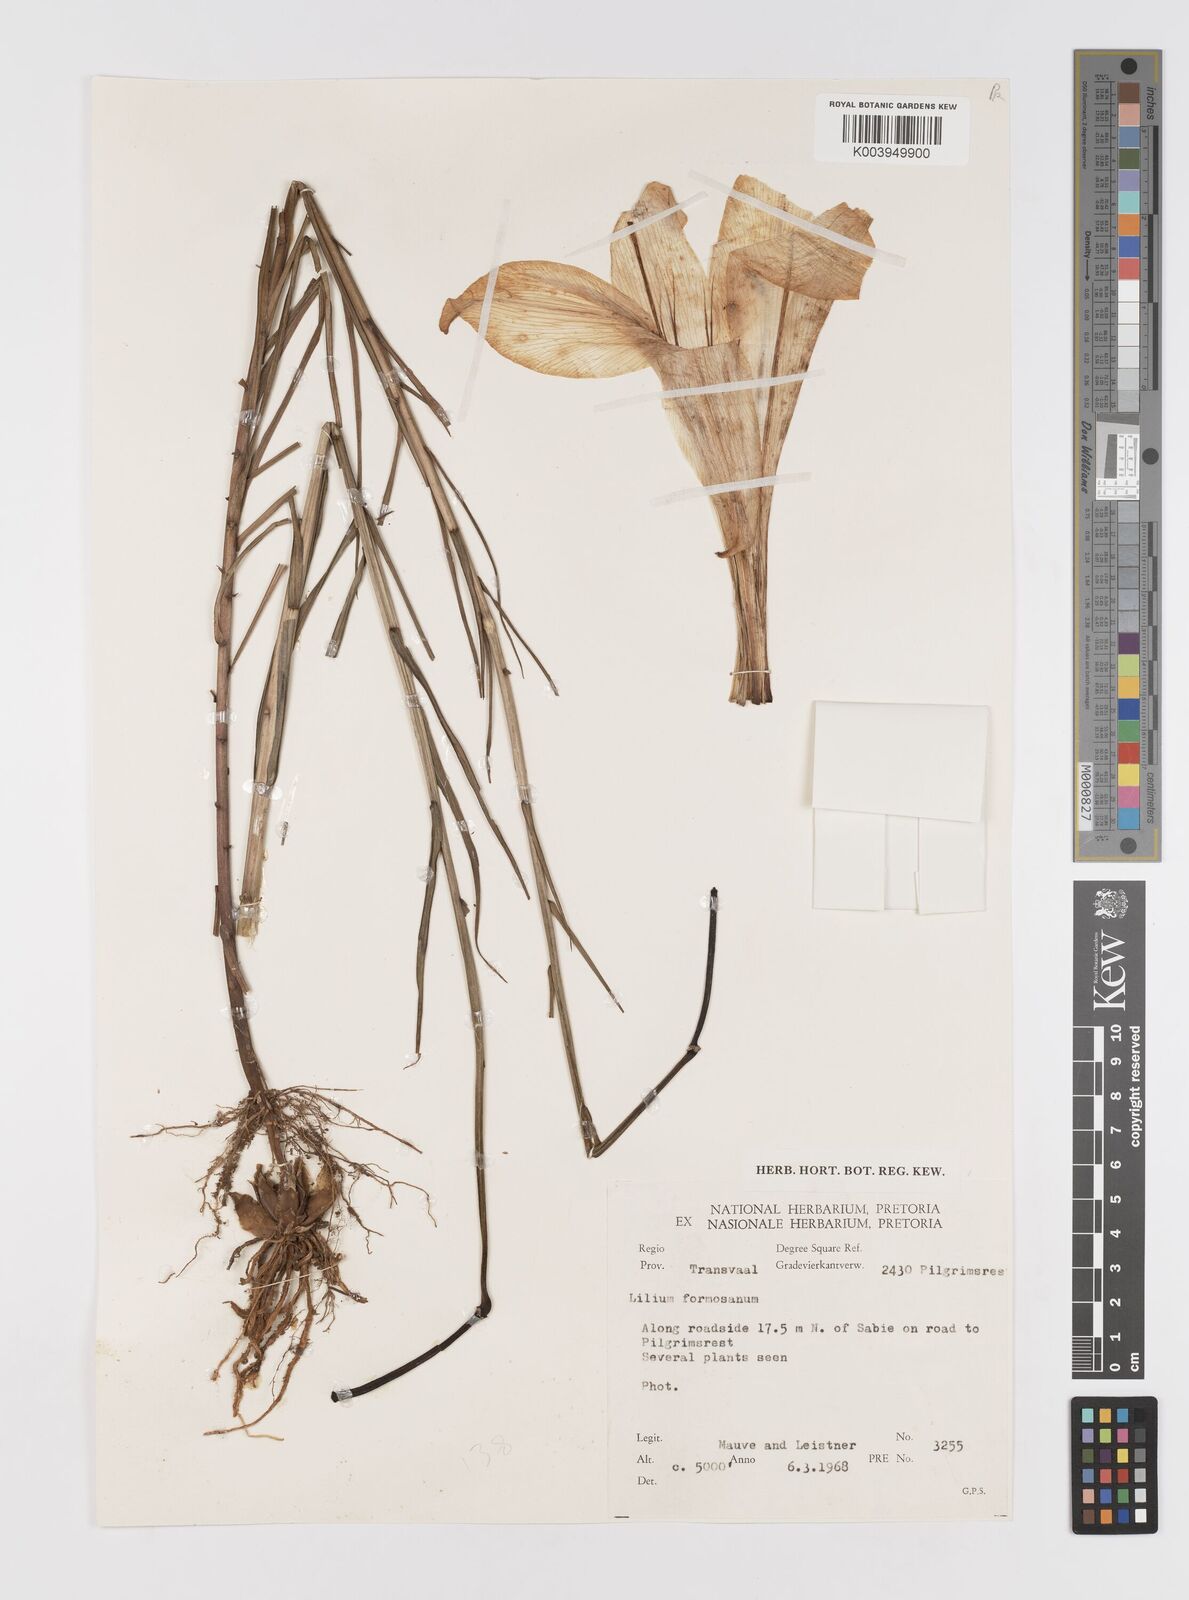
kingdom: Plantae
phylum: Tracheophyta
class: Liliopsida
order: Liliales
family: Liliaceae
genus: Lilium
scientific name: Lilium philippinense
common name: Philippine lily
